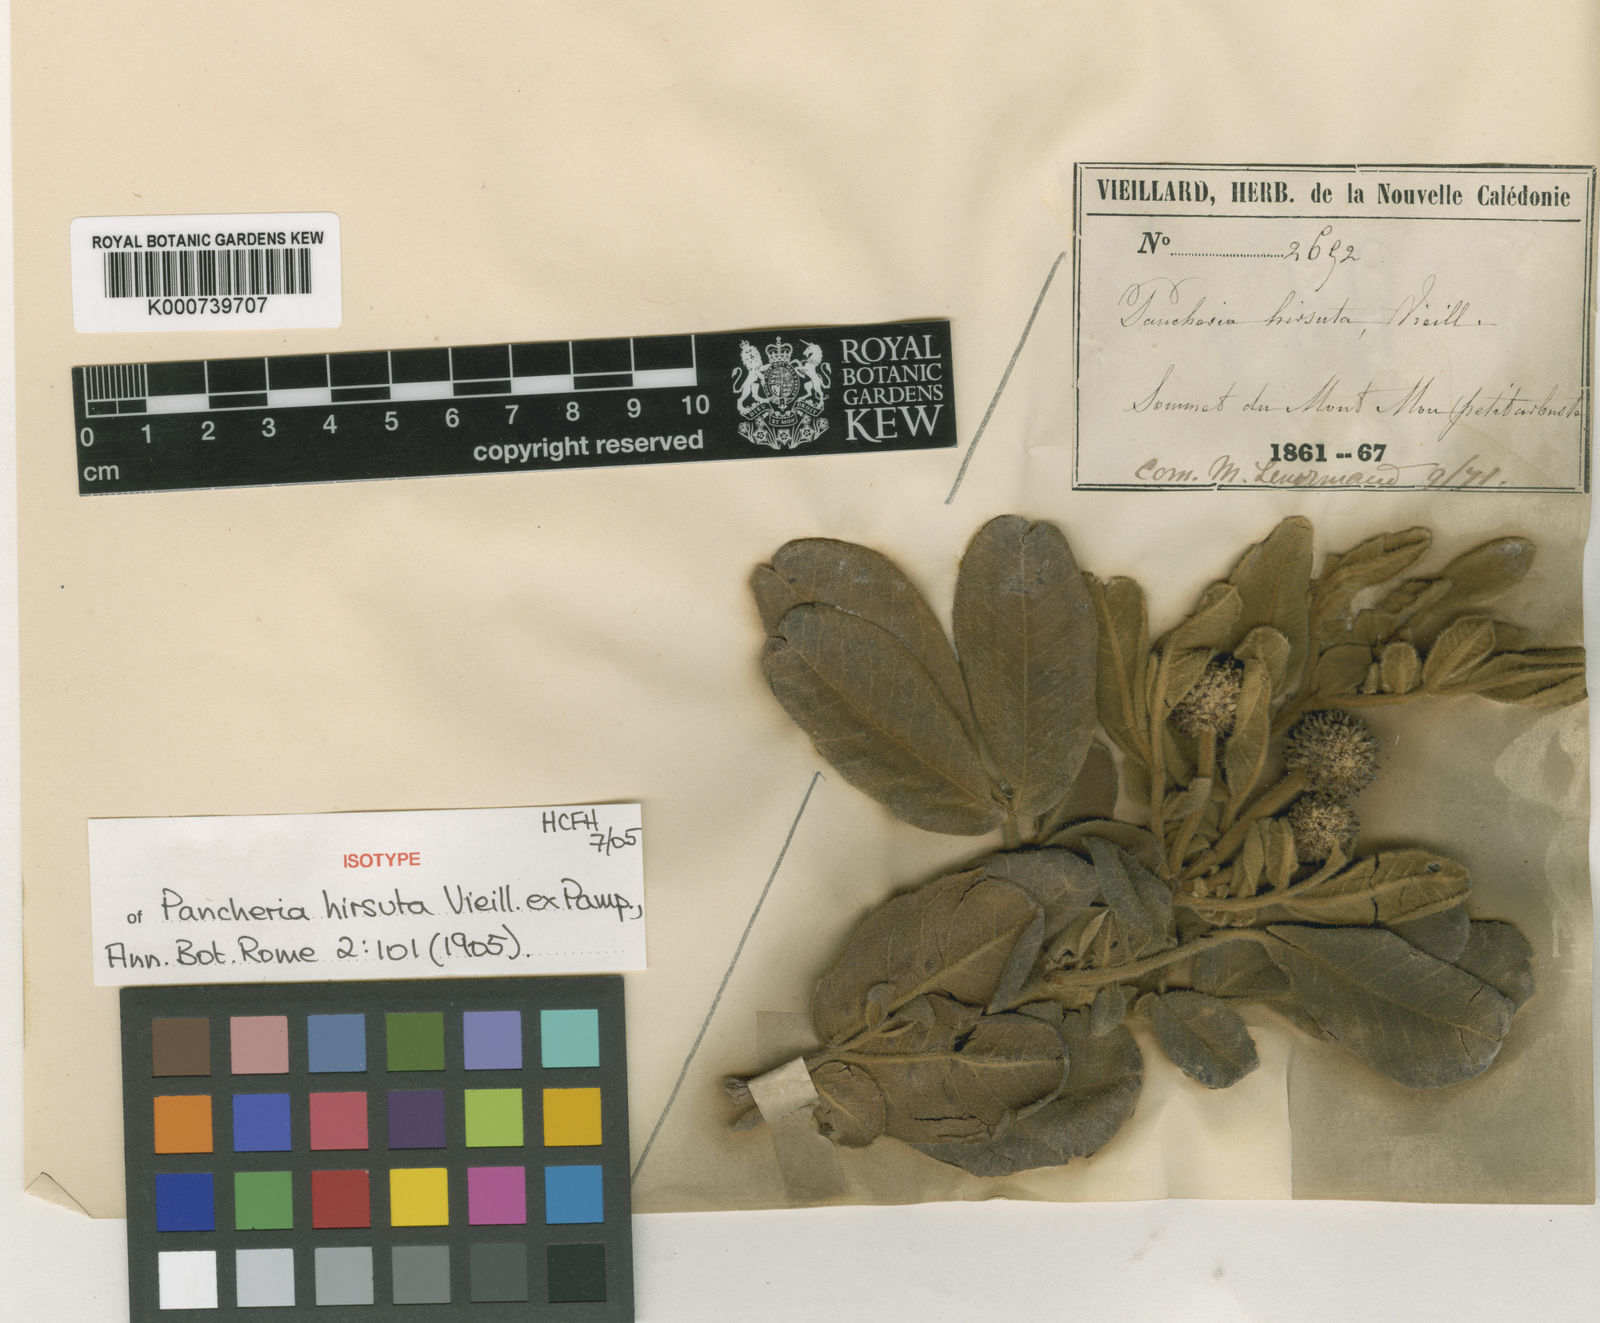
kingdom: Plantae
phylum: Tracheophyta
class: Magnoliopsida
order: Oxalidales
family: Cunoniaceae
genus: Pancheria
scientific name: Pancheria hirsuta
